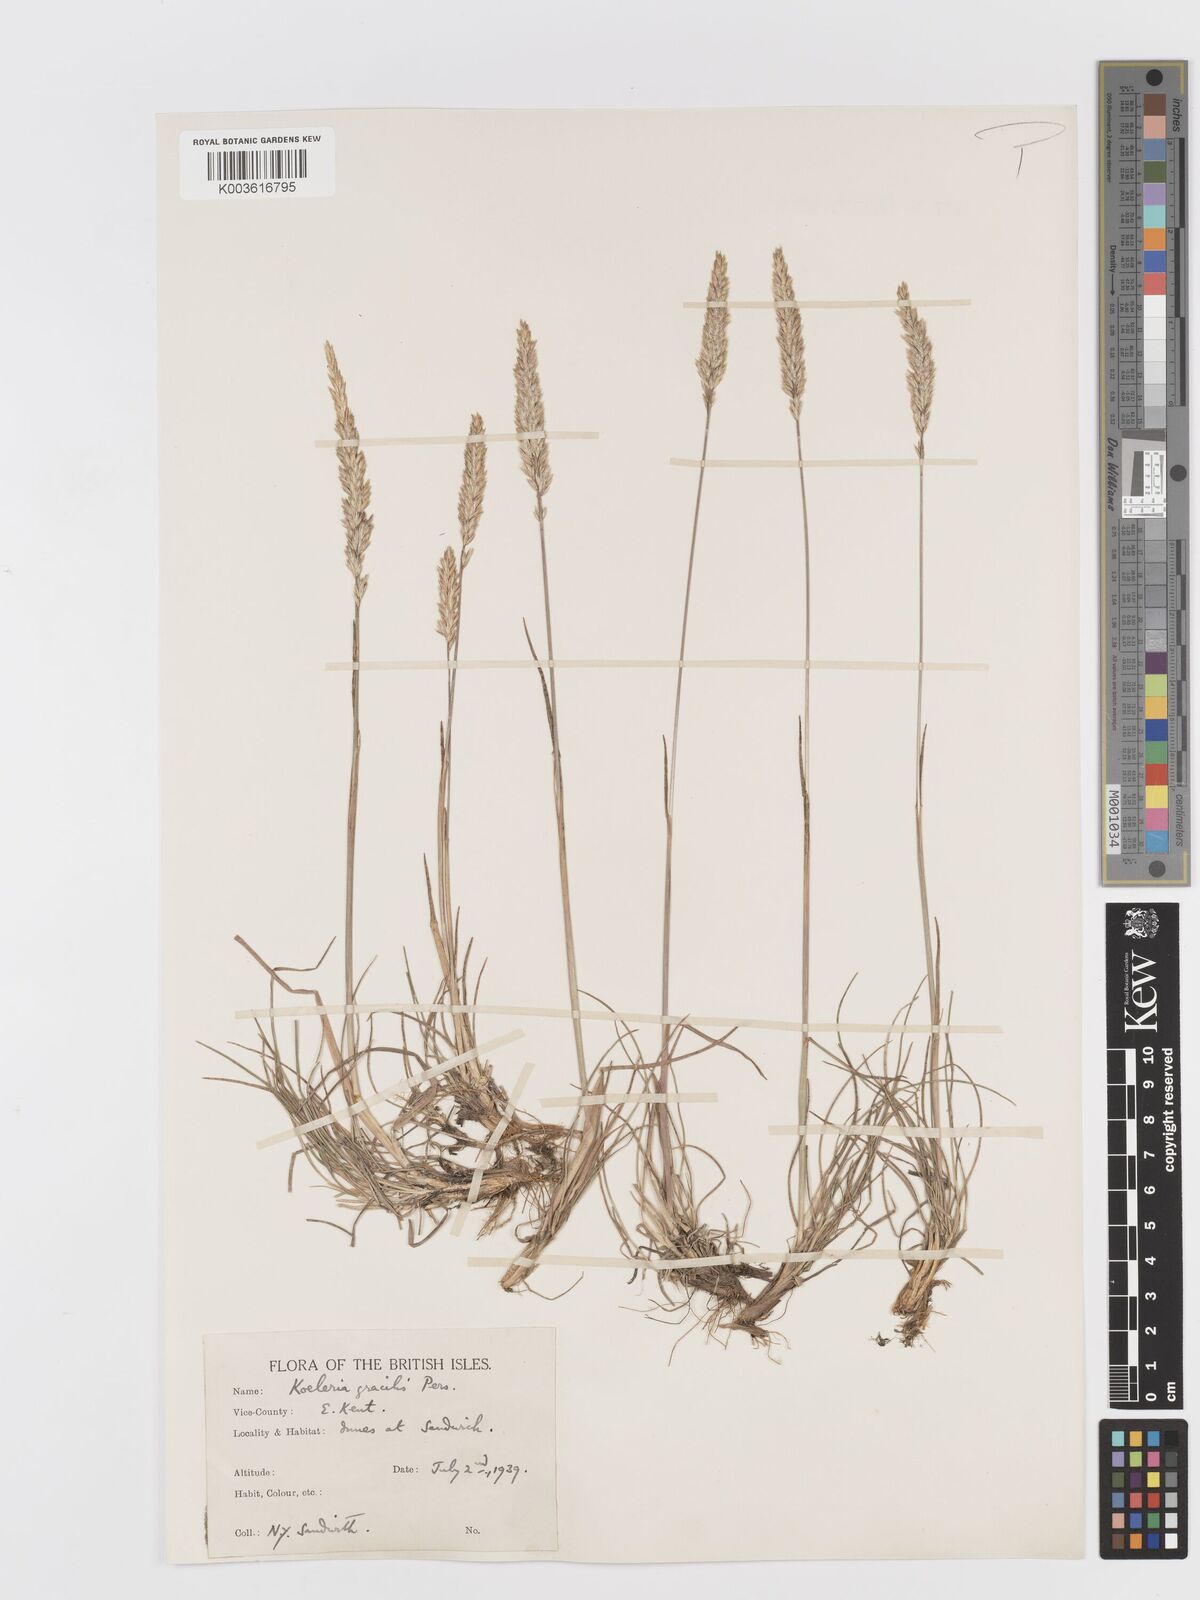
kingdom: Plantae
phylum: Tracheophyta
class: Liliopsida
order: Poales
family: Poaceae
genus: Koeleria
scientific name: Koeleria macrantha
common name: Crested hair-grass
